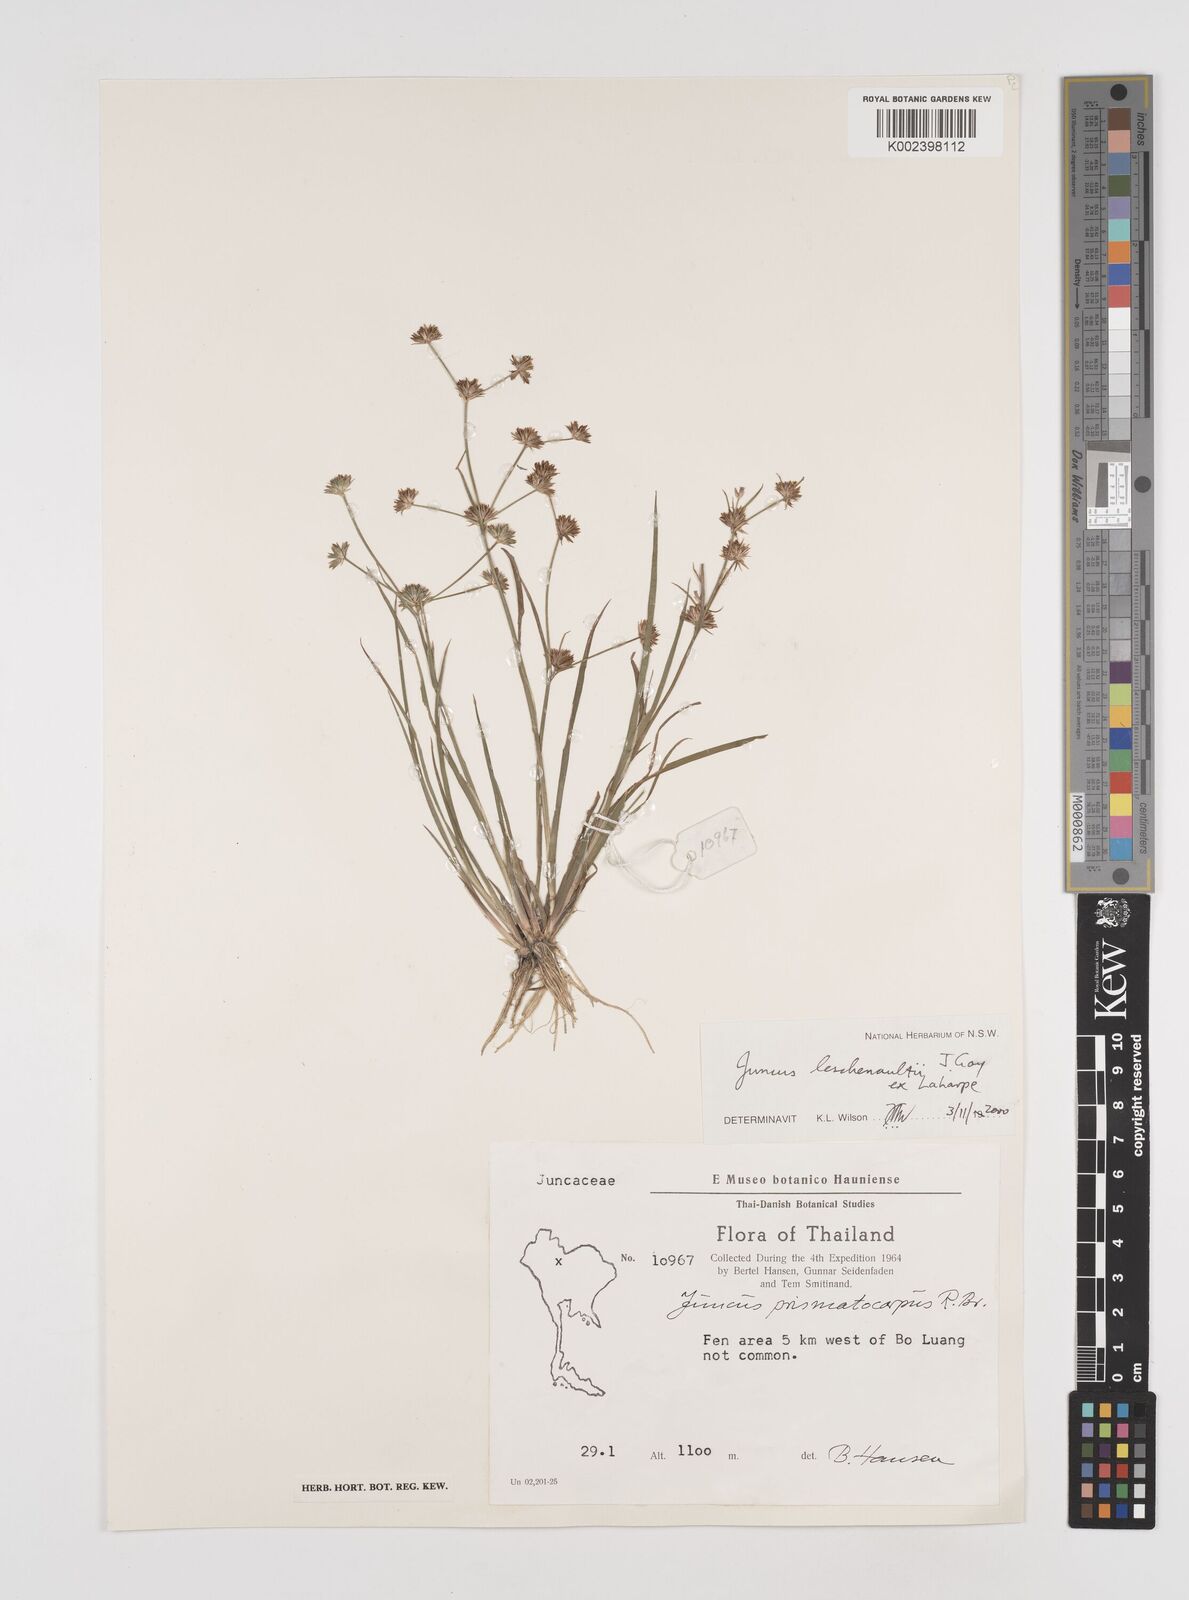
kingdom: Plantae
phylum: Tracheophyta
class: Liliopsida
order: Poales
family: Juncaceae
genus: Juncus
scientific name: Juncus prismatocarpus
